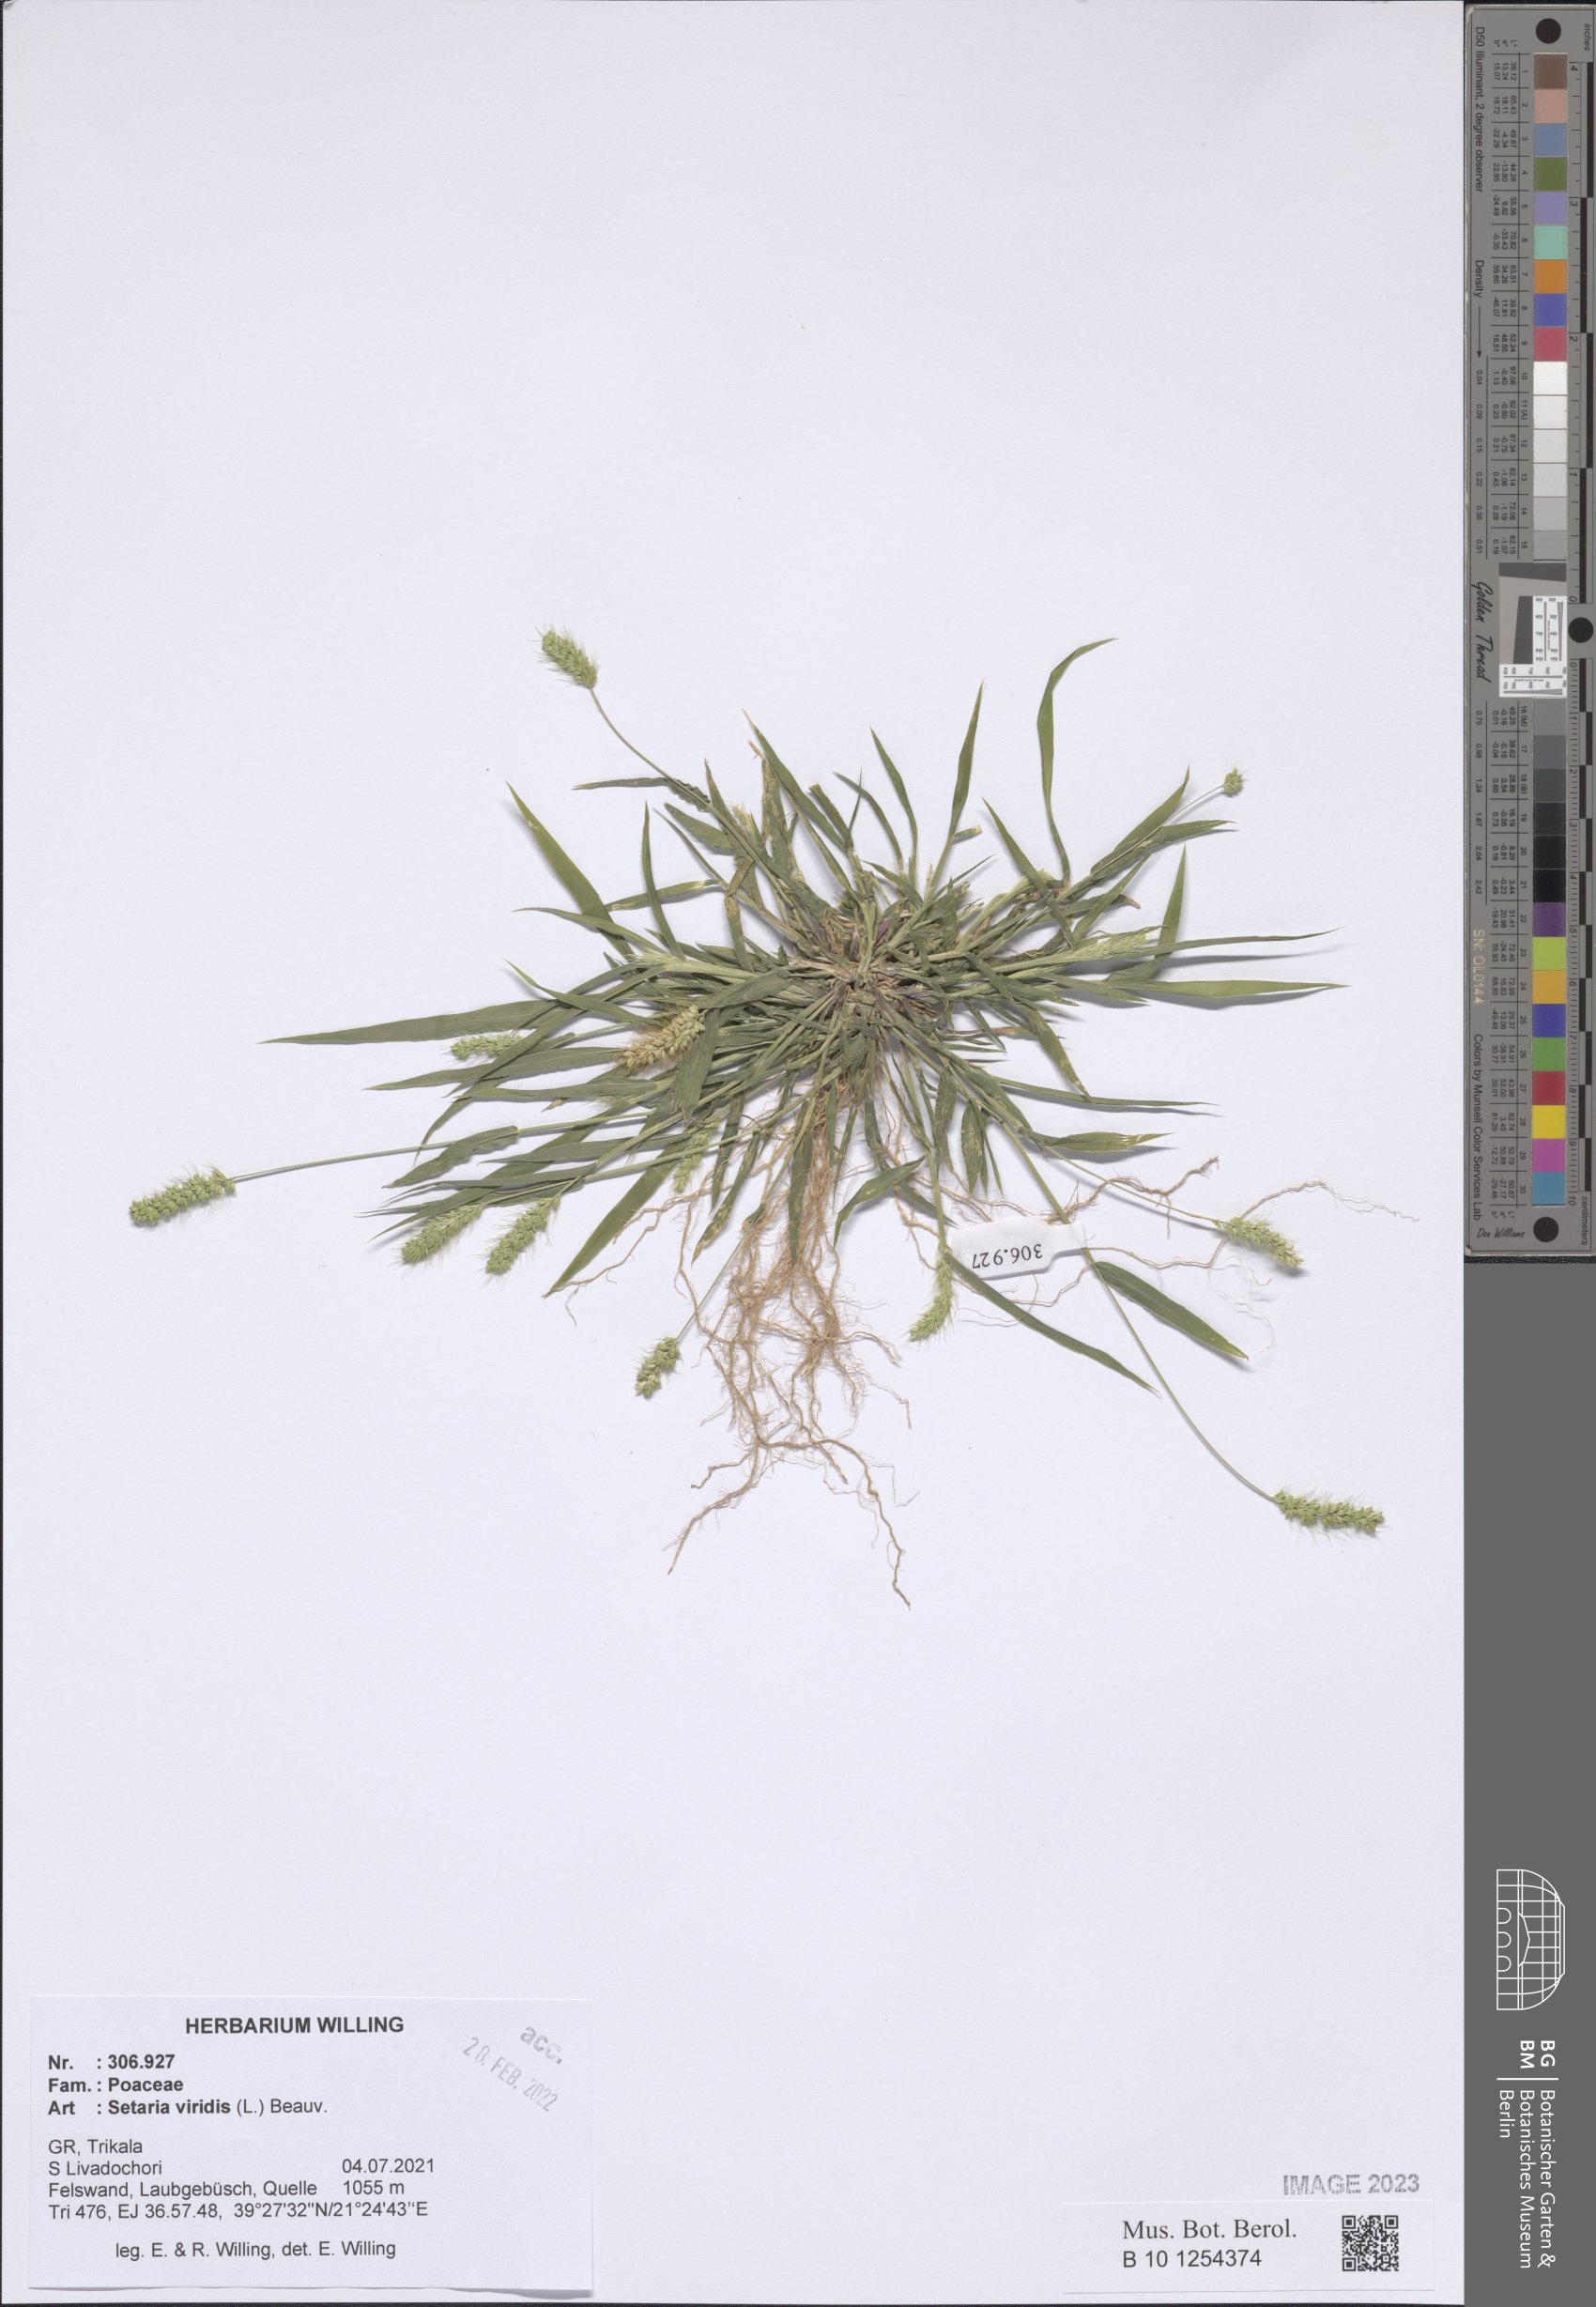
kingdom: Plantae
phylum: Tracheophyta
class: Liliopsida
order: Poales
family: Poaceae
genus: Setaria
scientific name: Setaria viridis
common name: Green bristlegrass
